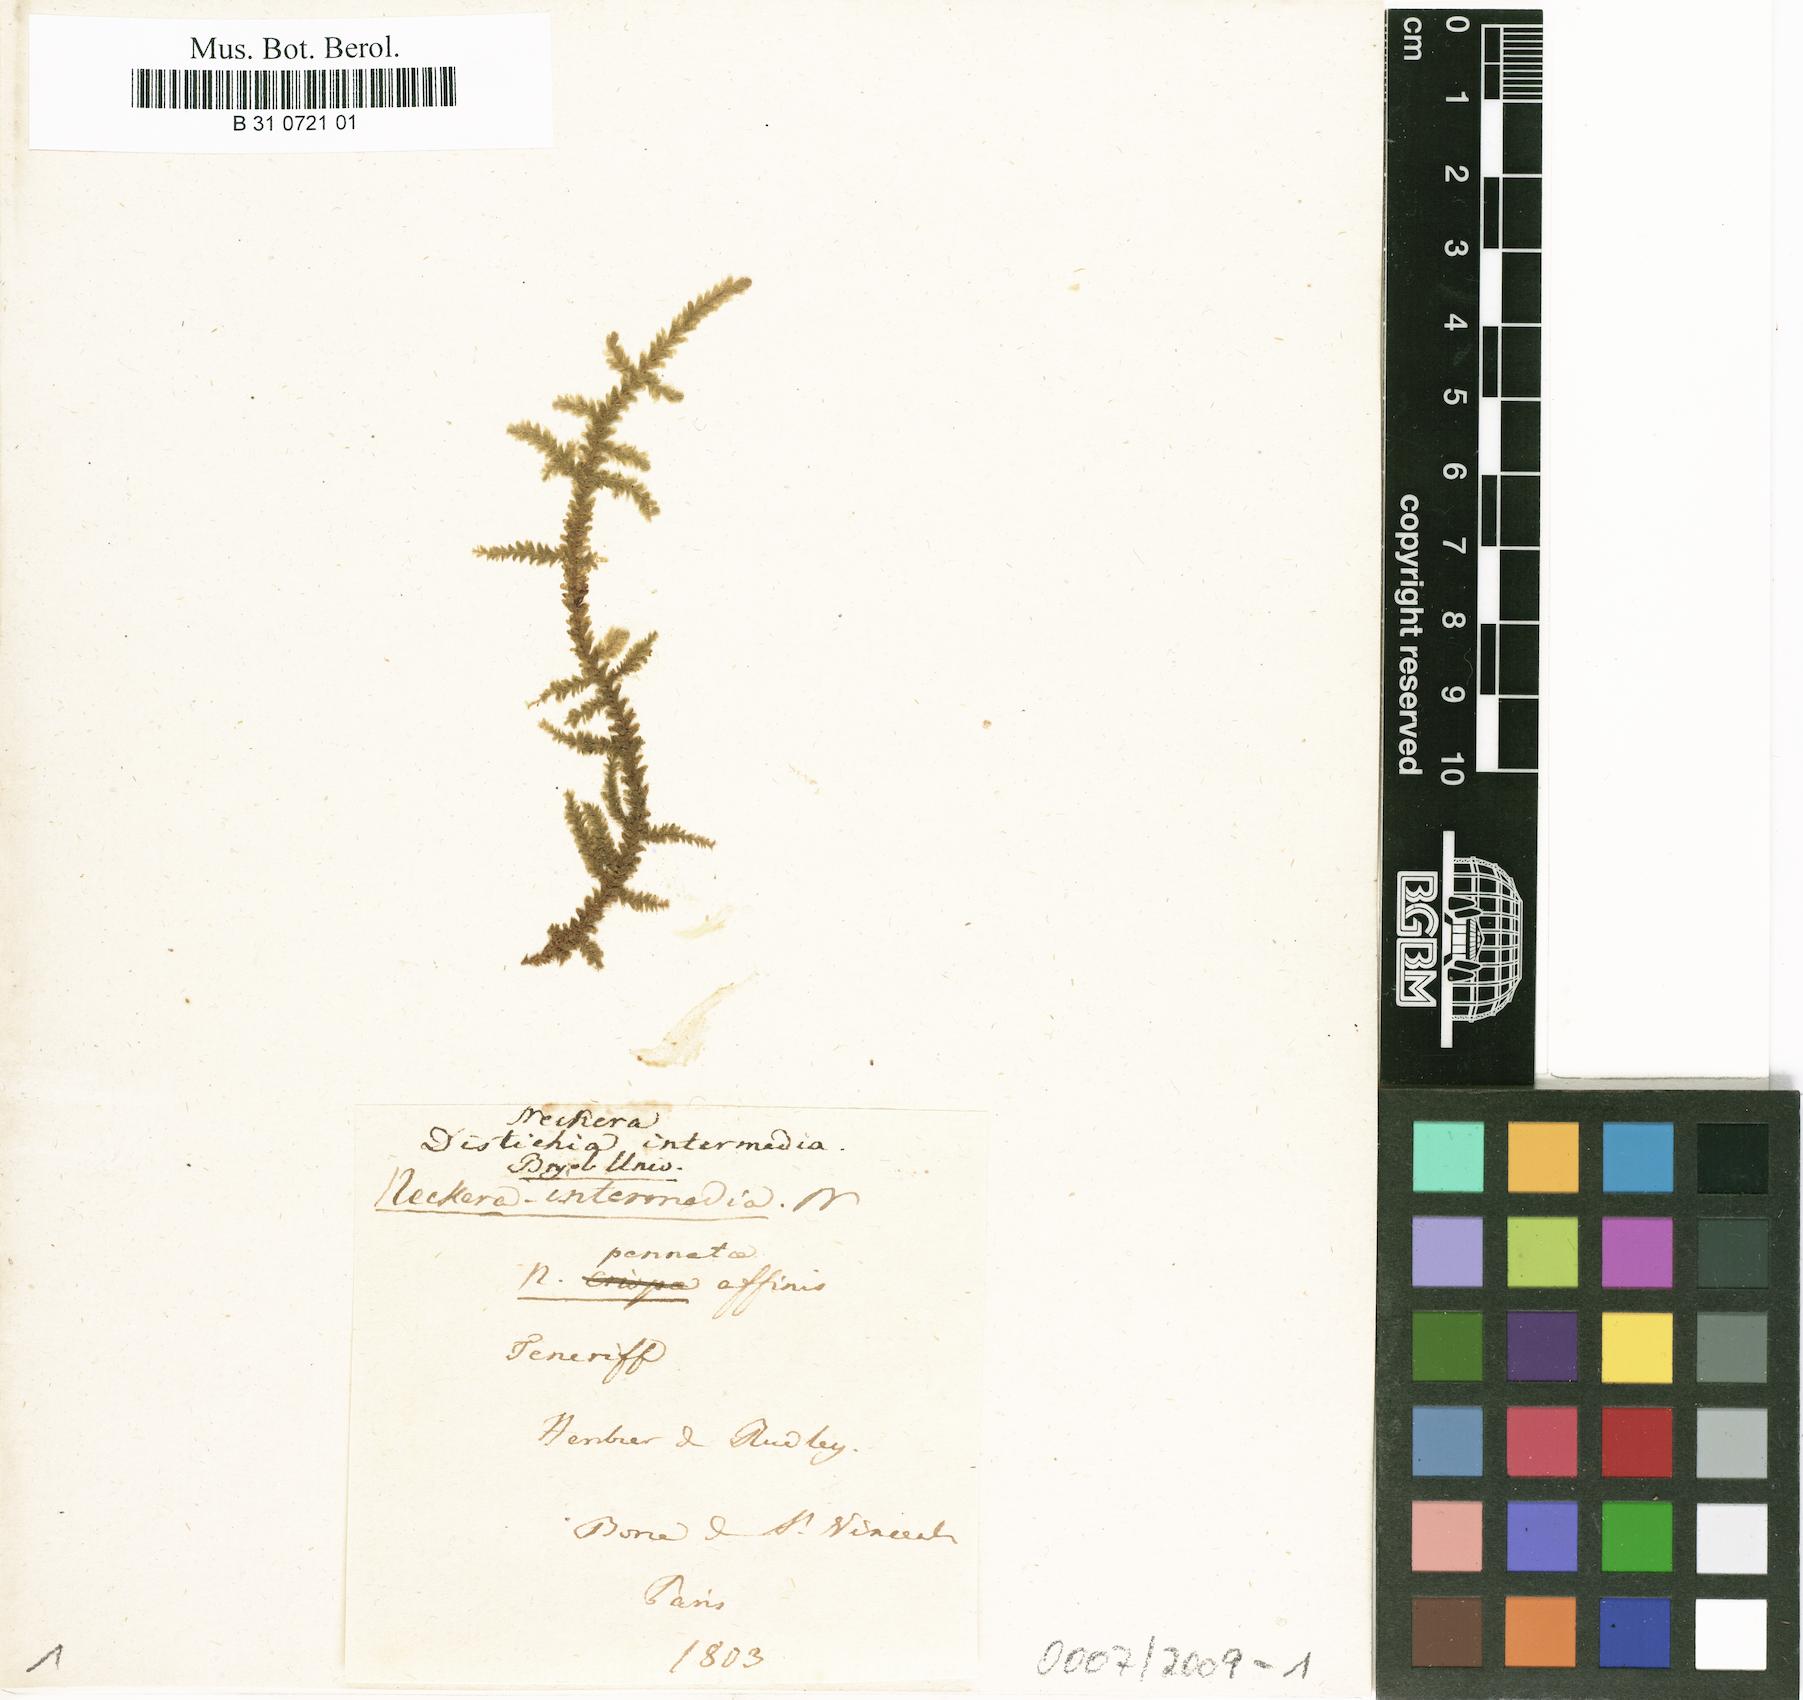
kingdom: Plantae
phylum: Bryophyta
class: Bryopsida
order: Hypnales
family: Neckeraceae
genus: Exsertotheca
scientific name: Exsertotheca intermedia
